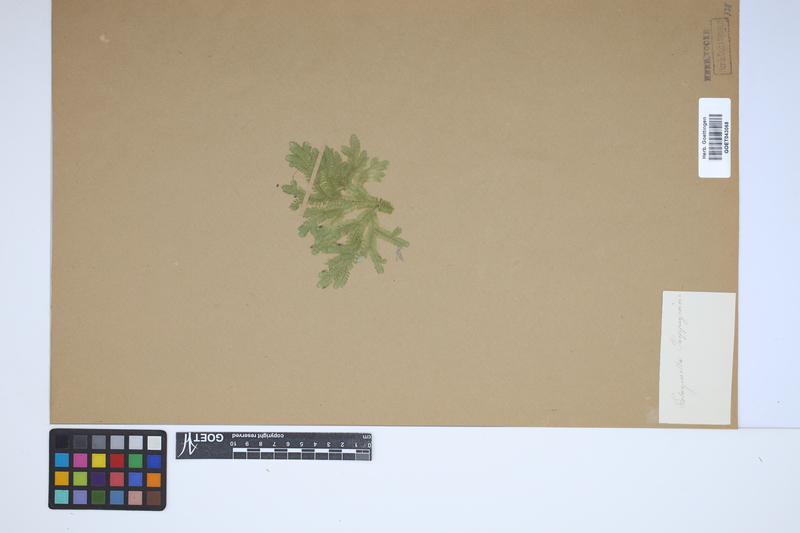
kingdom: Plantae
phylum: Tracheophyta
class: Lycopodiopsida
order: Selaginellales
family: Selaginellaceae
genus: Selaginella
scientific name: Selaginella sulcata
